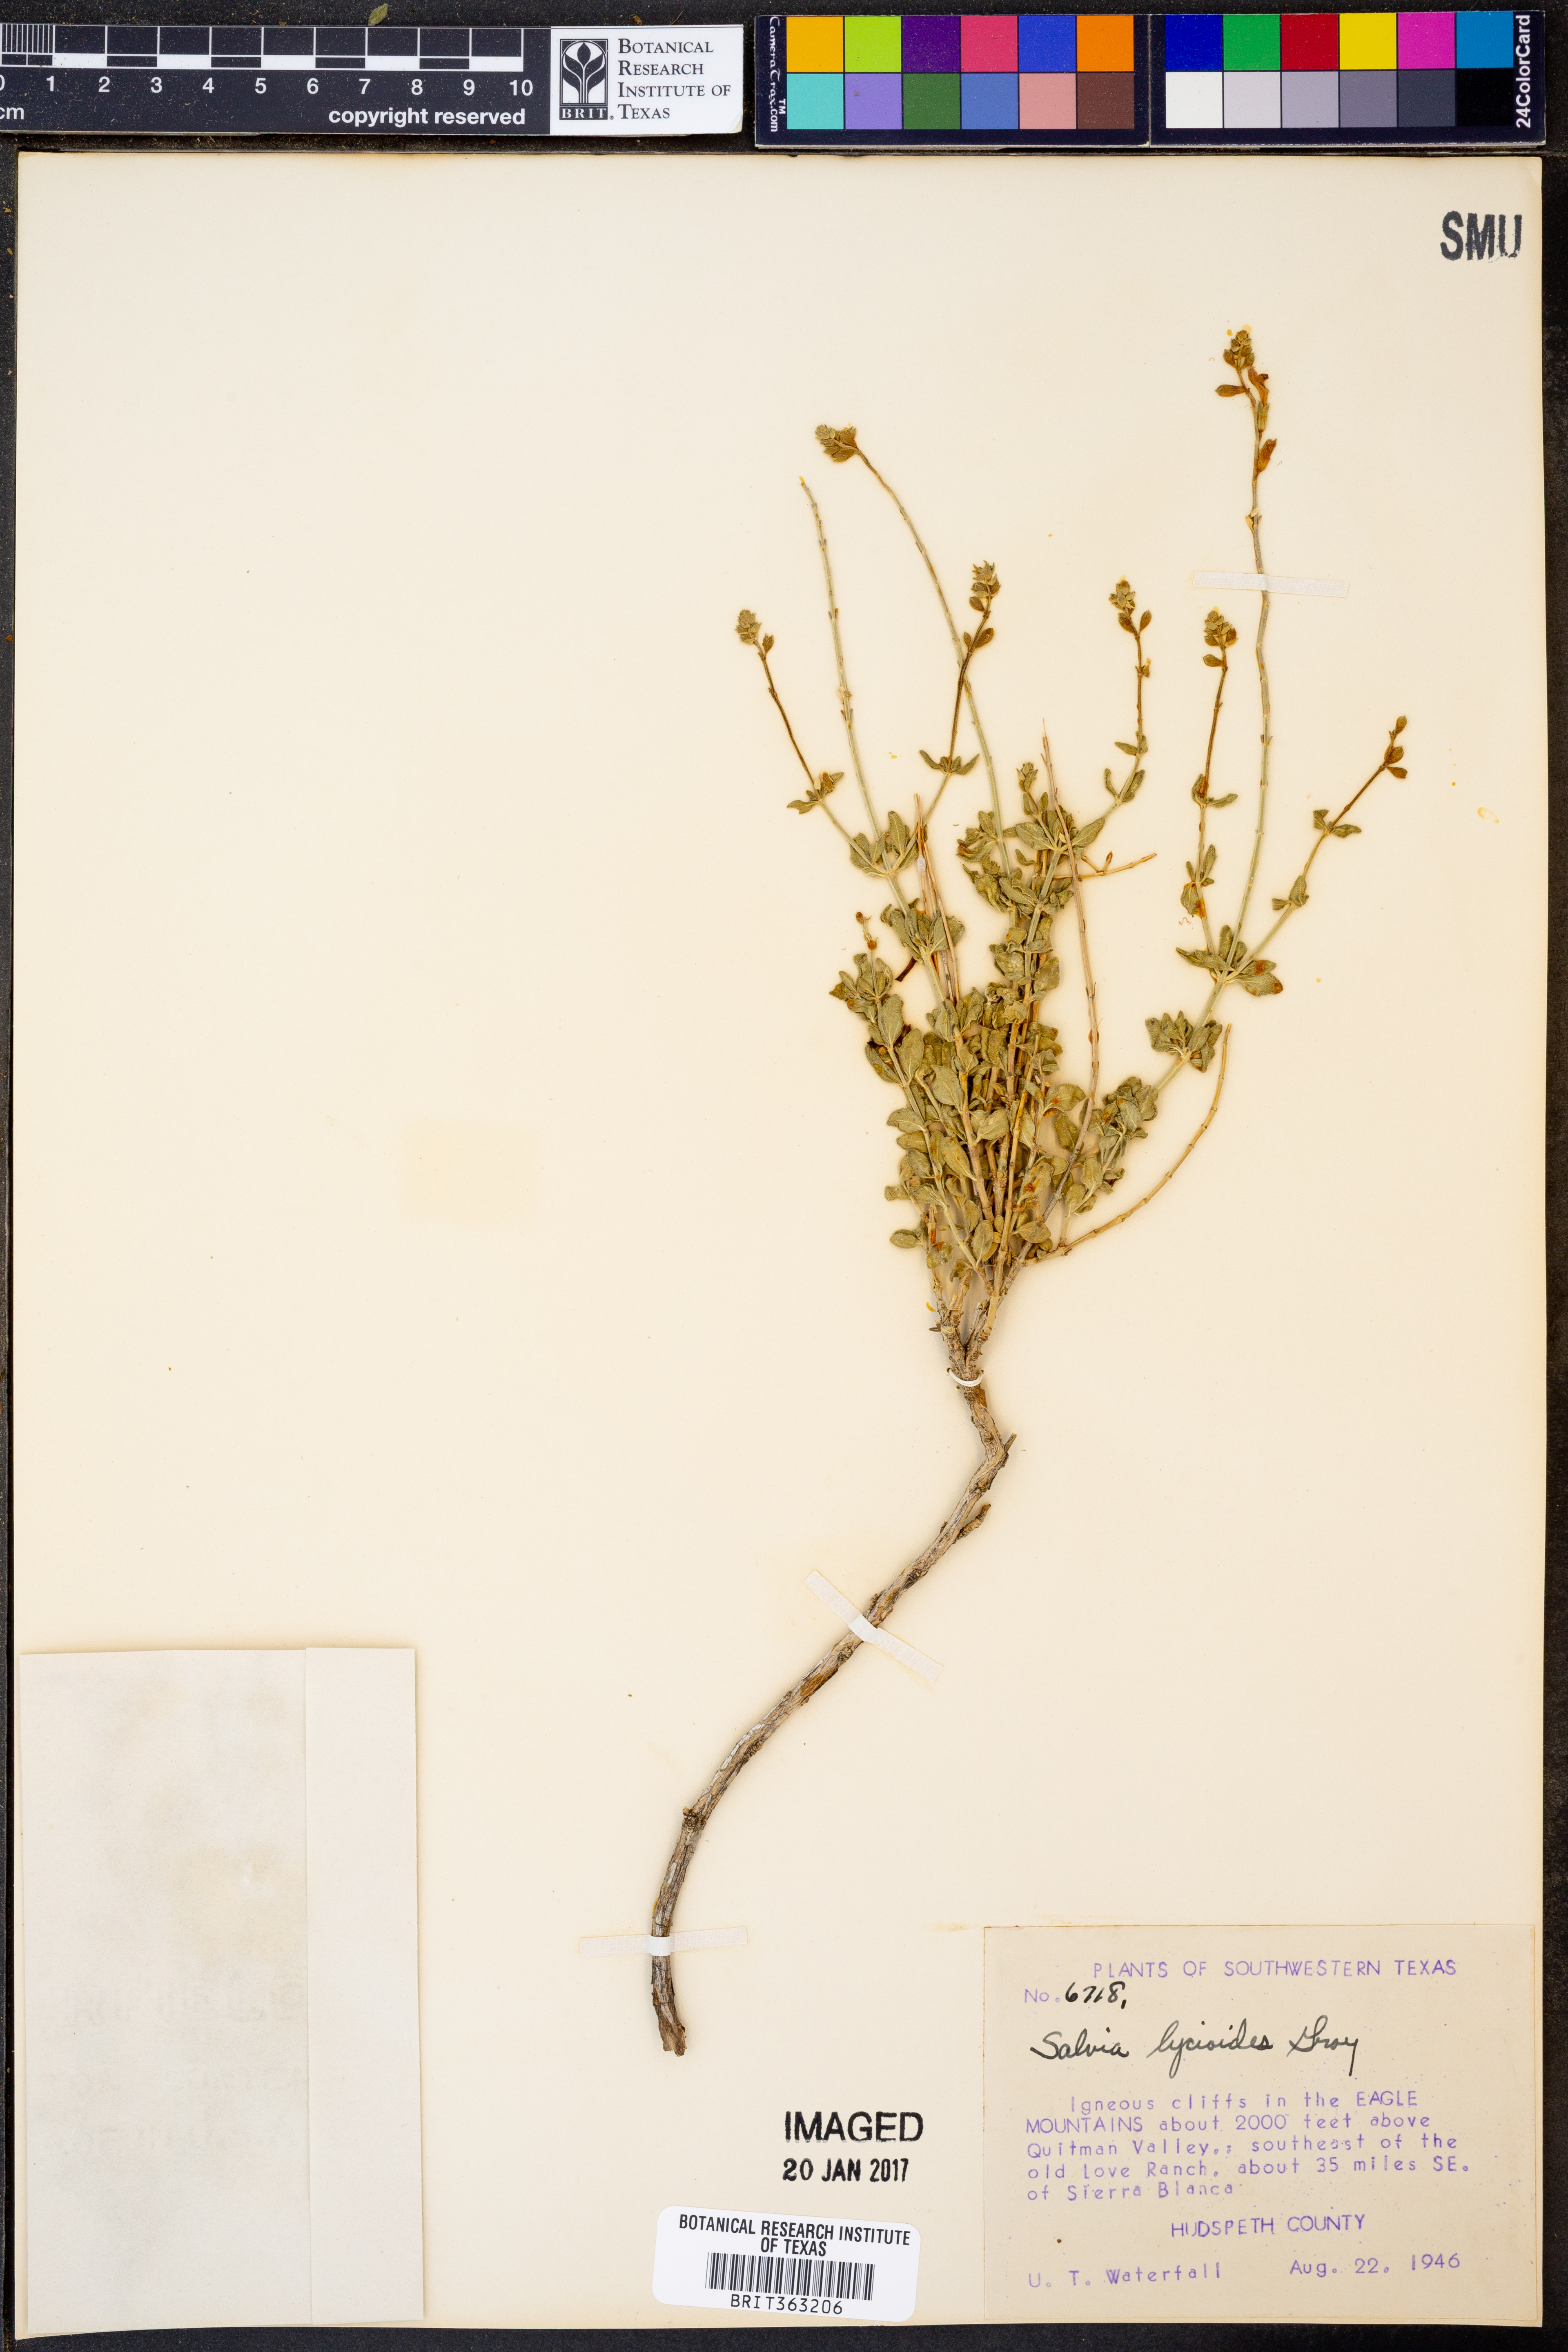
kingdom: Plantae
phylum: Tracheophyta
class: Magnoliopsida
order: Lamiales
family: Lamiaceae
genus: Salvia
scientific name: Salvia lycioides
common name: Canyon sage
